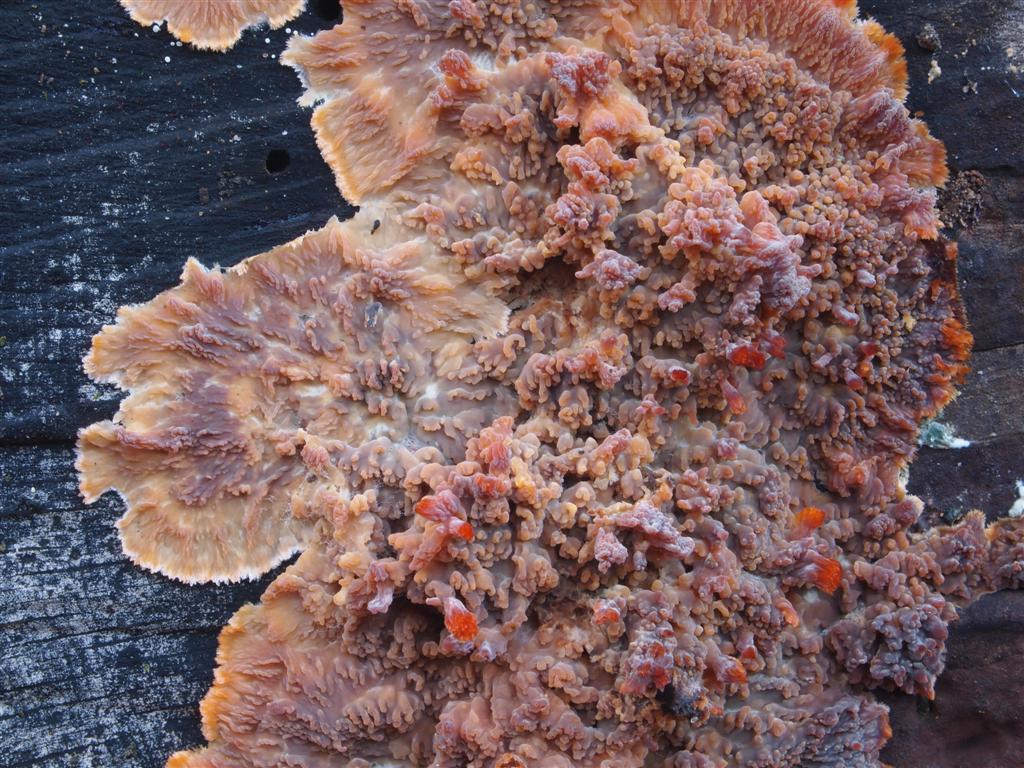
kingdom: Fungi
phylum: Basidiomycota
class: Agaricomycetes
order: Polyporales
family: Meruliaceae
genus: Phlebia
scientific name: Phlebia radiata
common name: stråle-åresvamp
